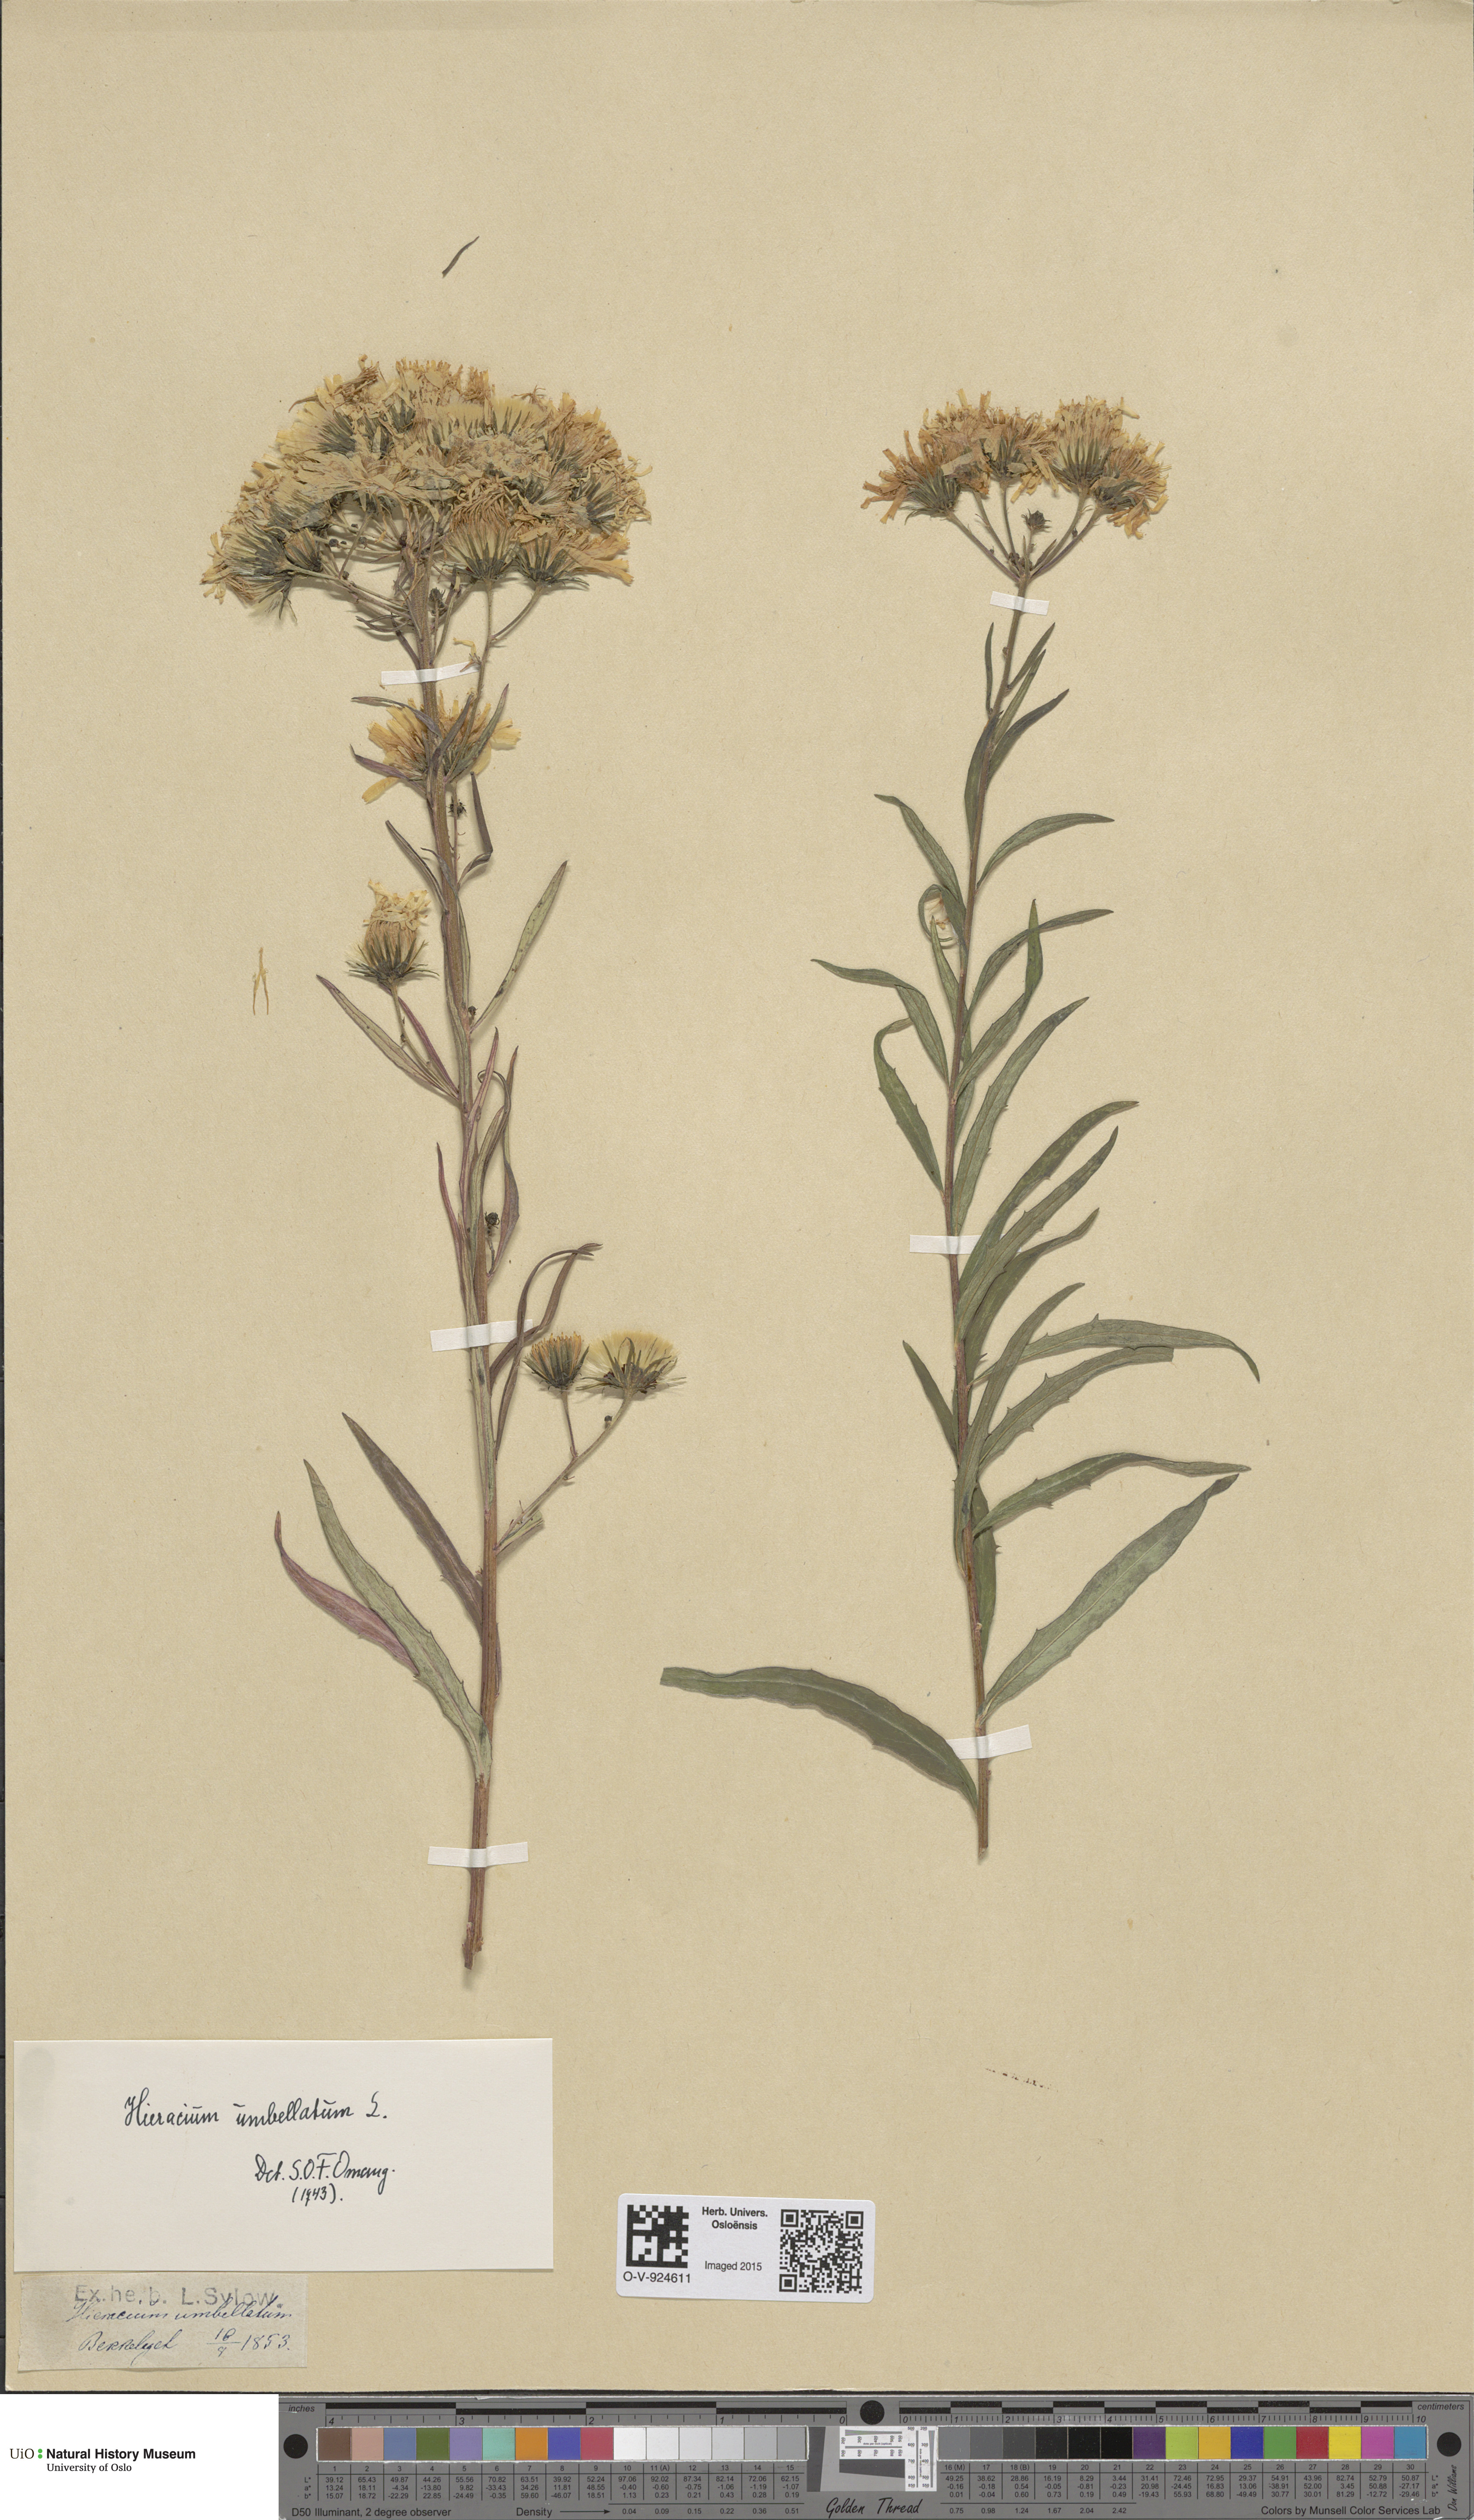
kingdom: Plantae
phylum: Tracheophyta
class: Magnoliopsida
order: Asterales
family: Asteraceae
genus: Hieracium
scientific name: Hieracium umbellatum
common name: Northern hawkweed
